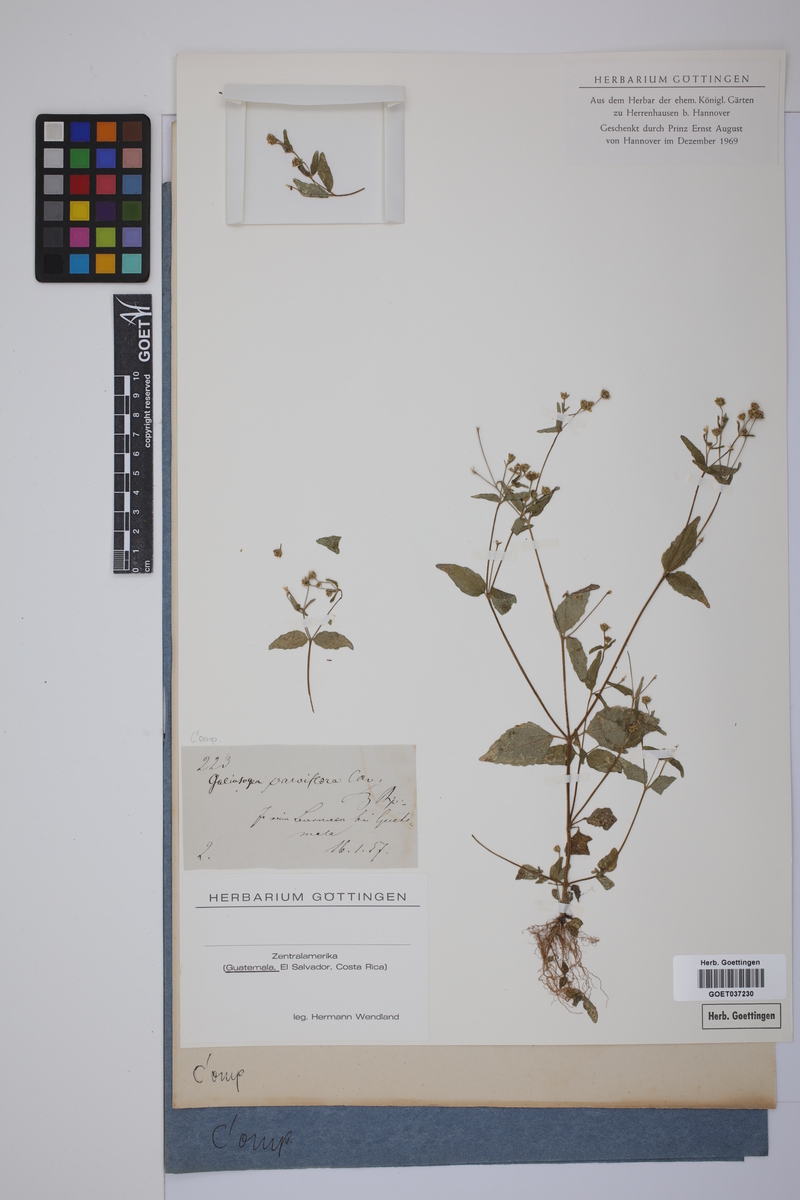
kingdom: Plantae
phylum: Tracheophyta
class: Magnoliopsida
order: Asterales
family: Asteraceae
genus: Galinsoga
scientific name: Galinsoga parviflora
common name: Gallant soldier
